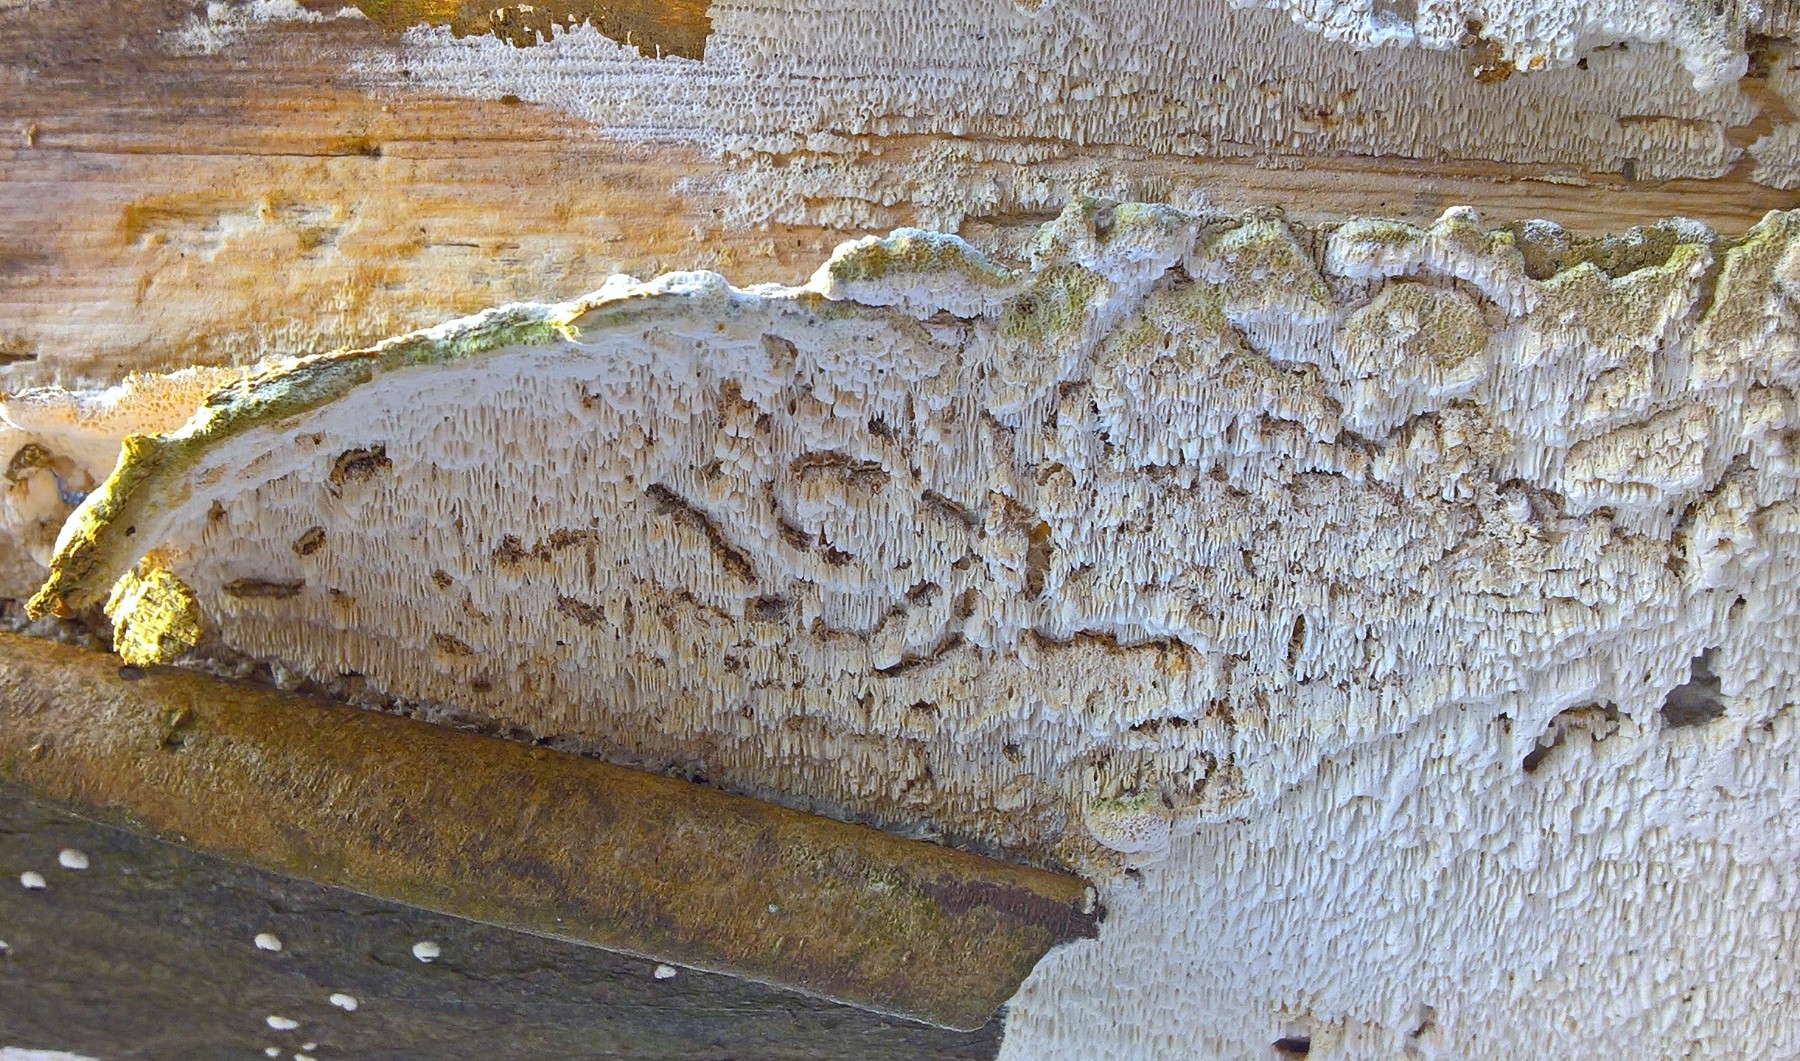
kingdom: Fungi
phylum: Basidiomycota
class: Agaricomycetes
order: Polyporales
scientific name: Polyporales
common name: poresvampordenen
